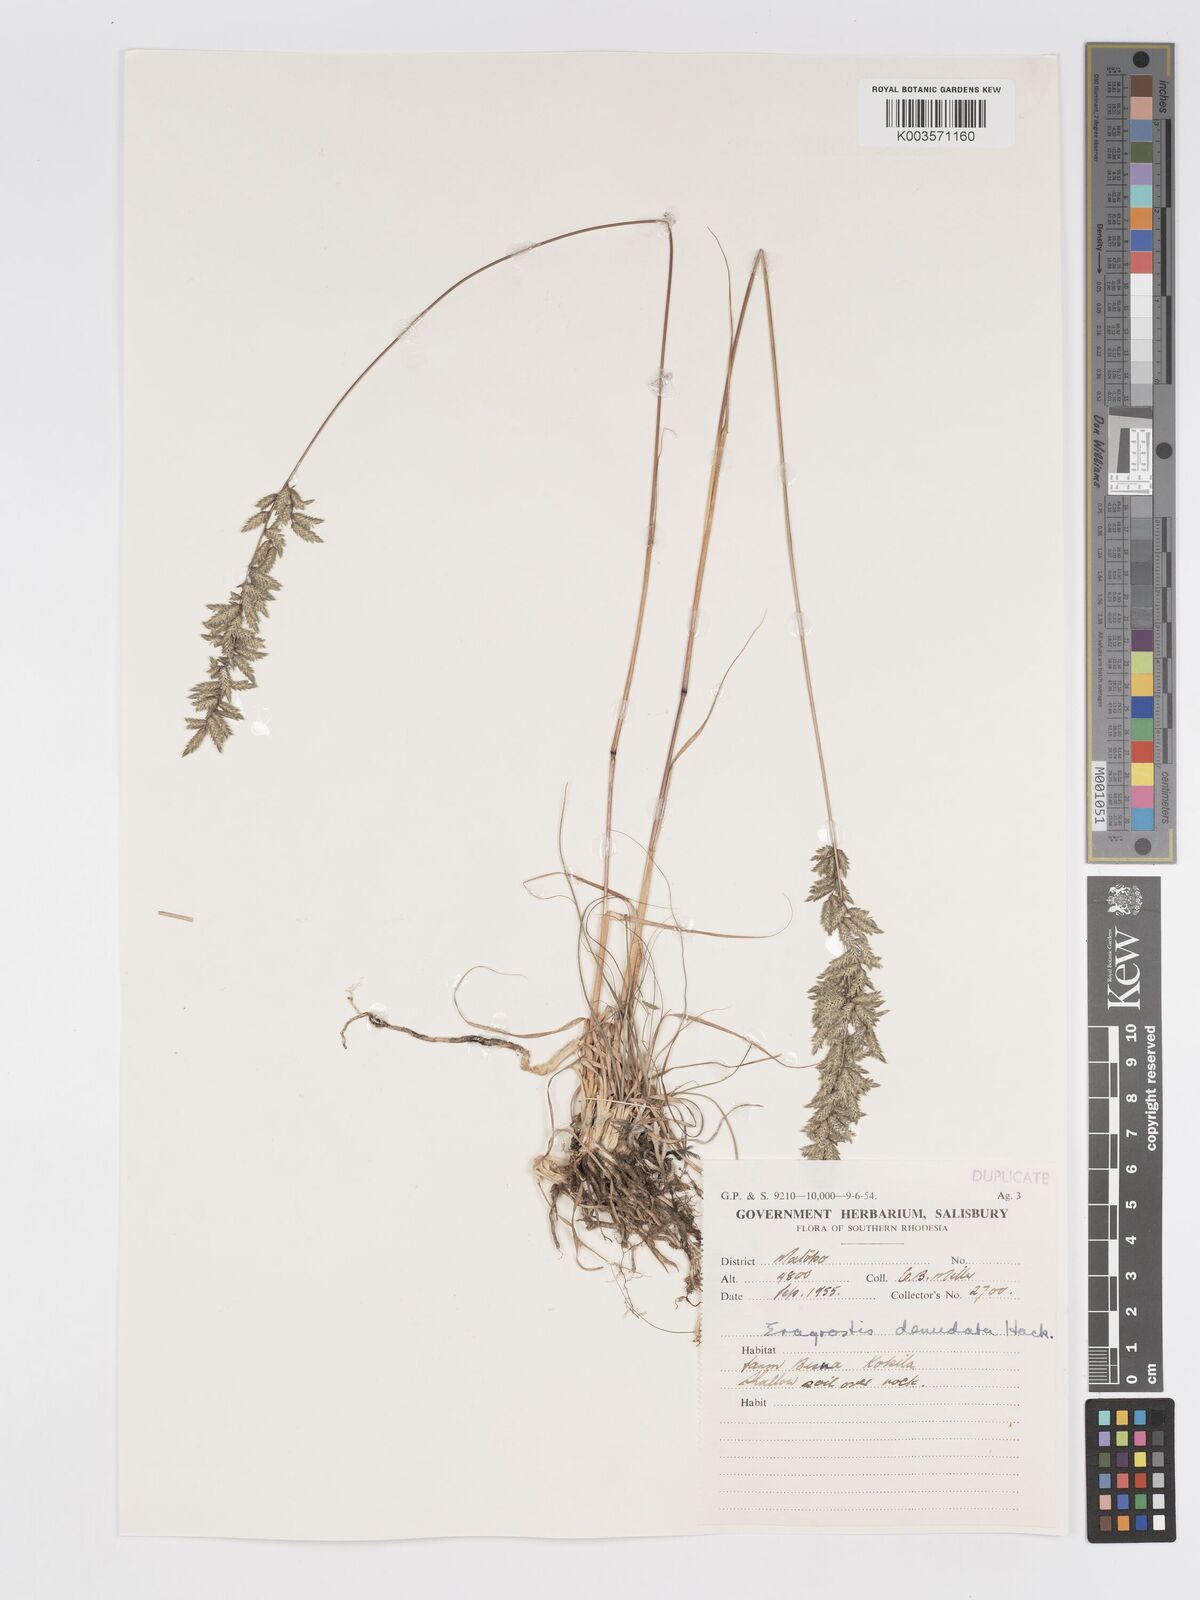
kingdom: Plantae
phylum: Tracheophyta
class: Liliopsida
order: Poales
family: Poaceae
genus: Eragrostis
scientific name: Eragrostis nindensis
